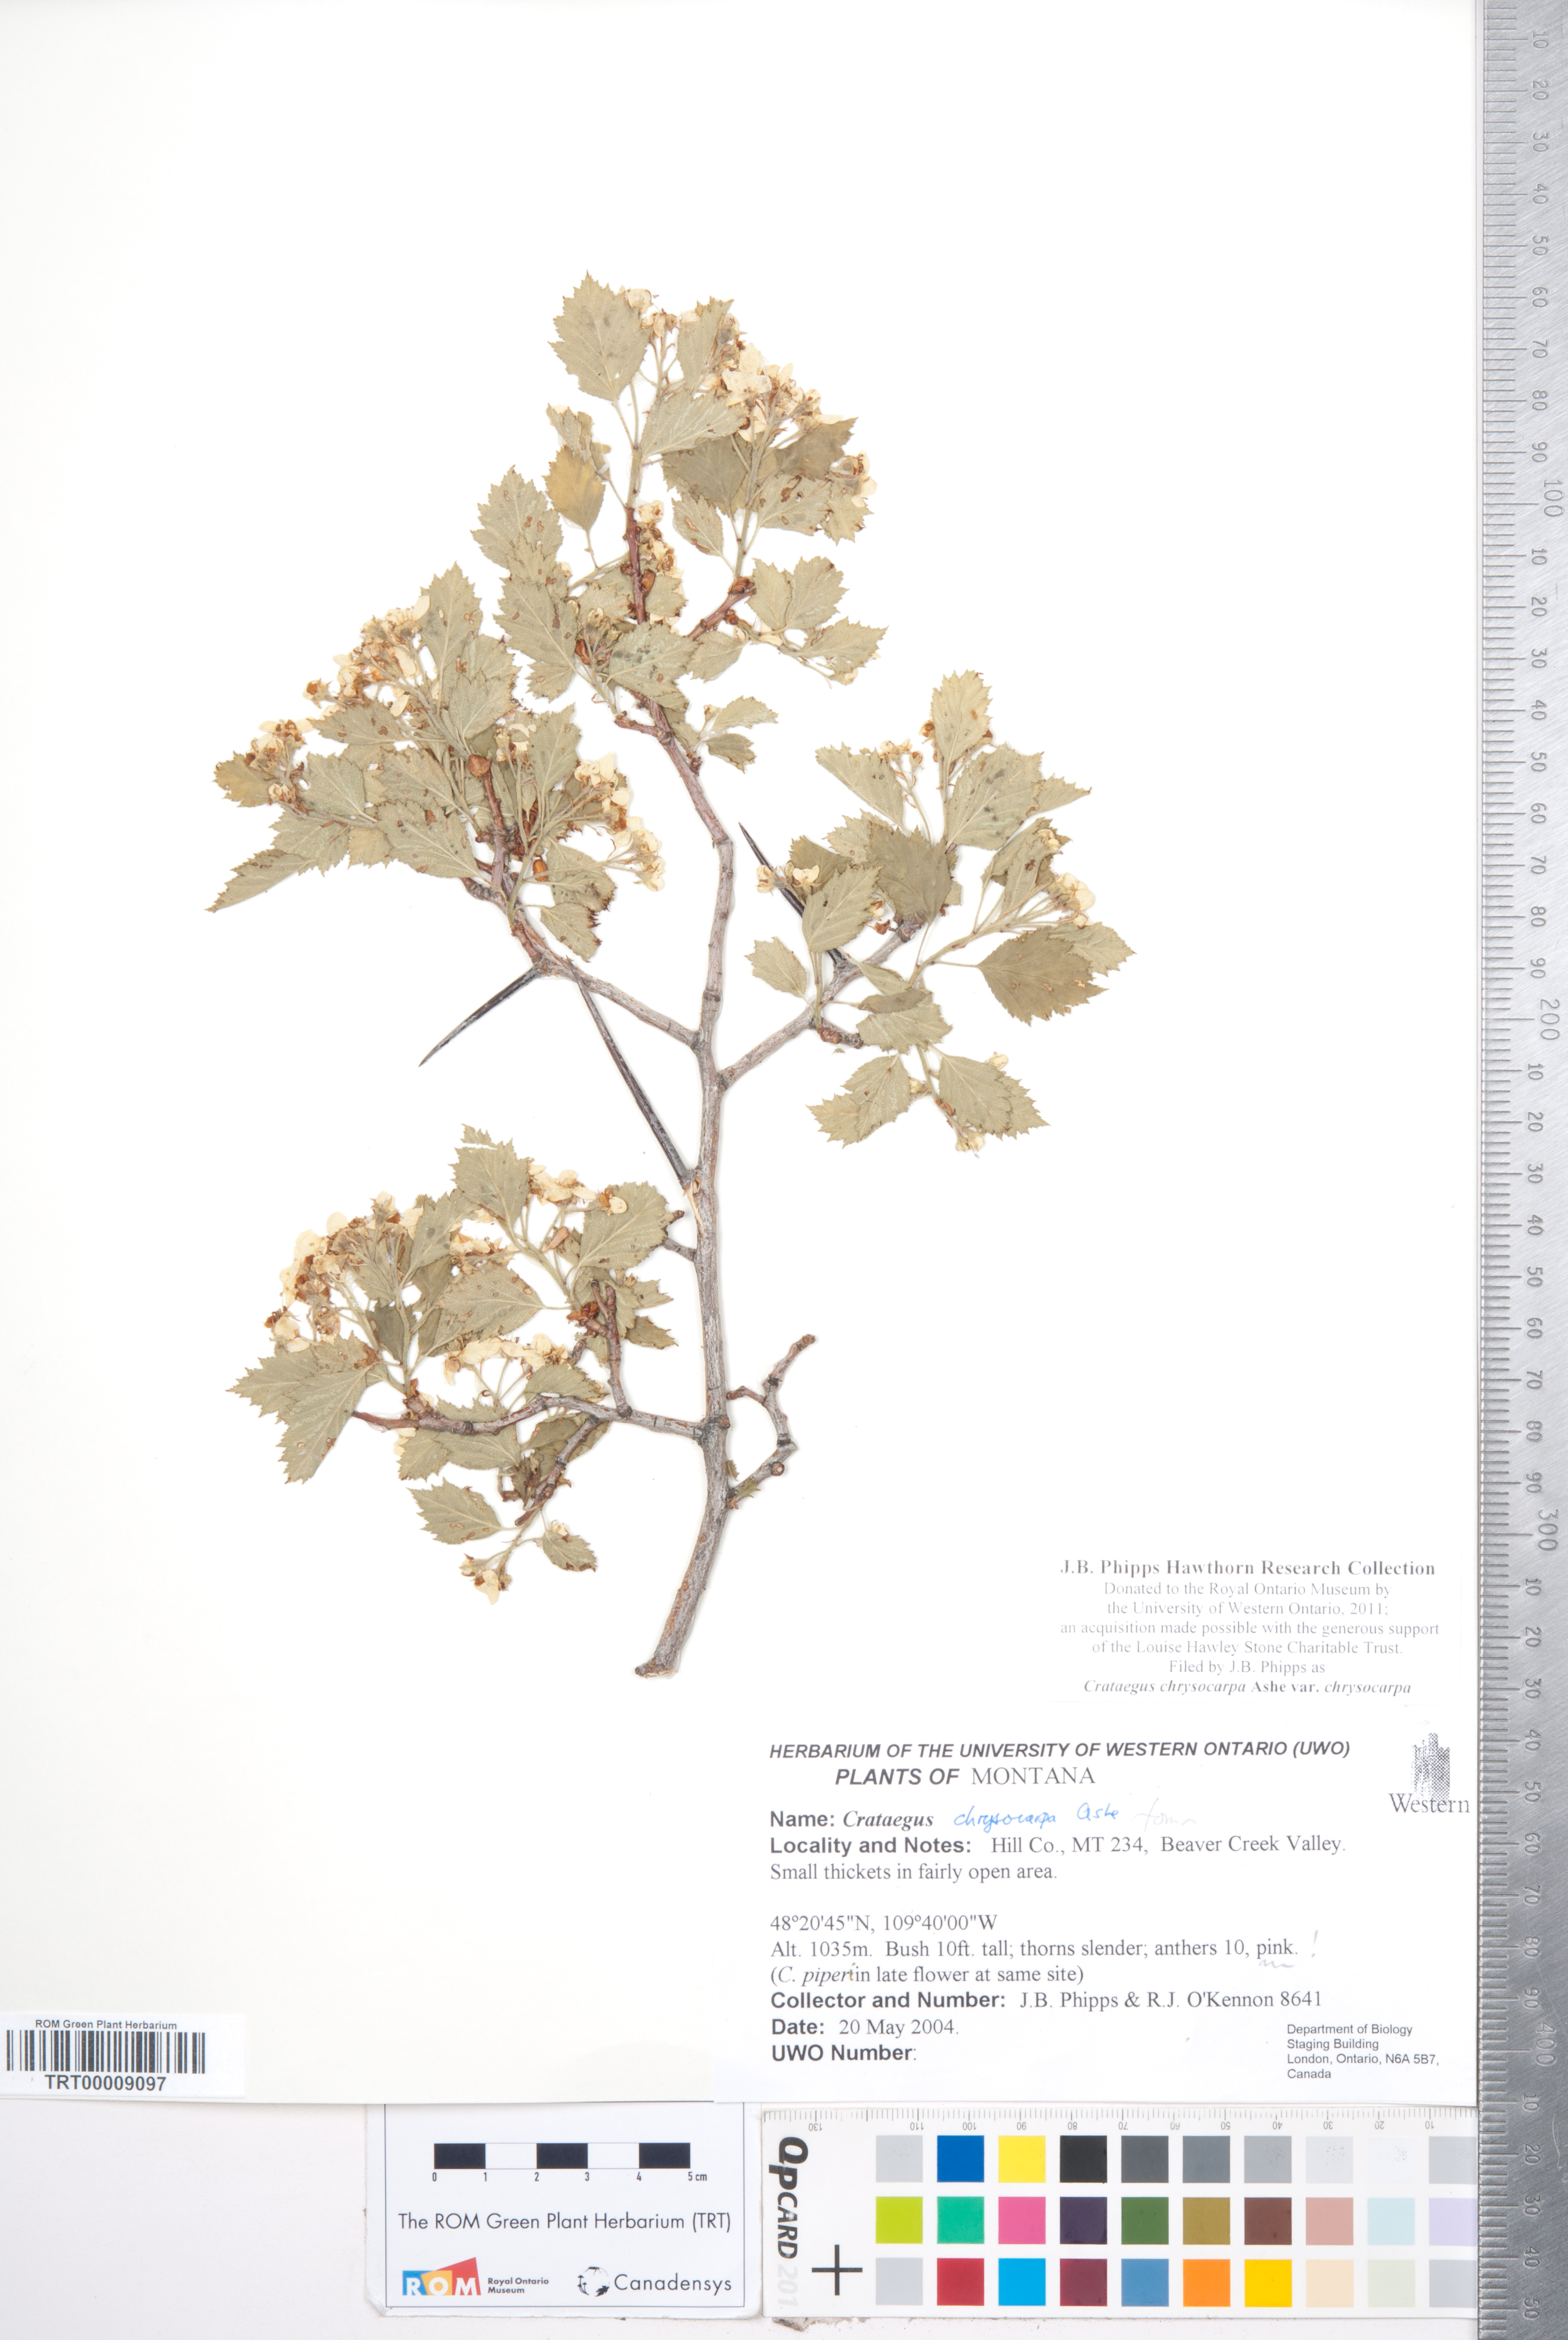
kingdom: Plantae
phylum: Tracheophyta
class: Magnoliopsida
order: Rosales
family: Rosaceae
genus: Crataegus
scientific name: Crataegus chrysocarpa
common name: Fire-berry hawthorn
